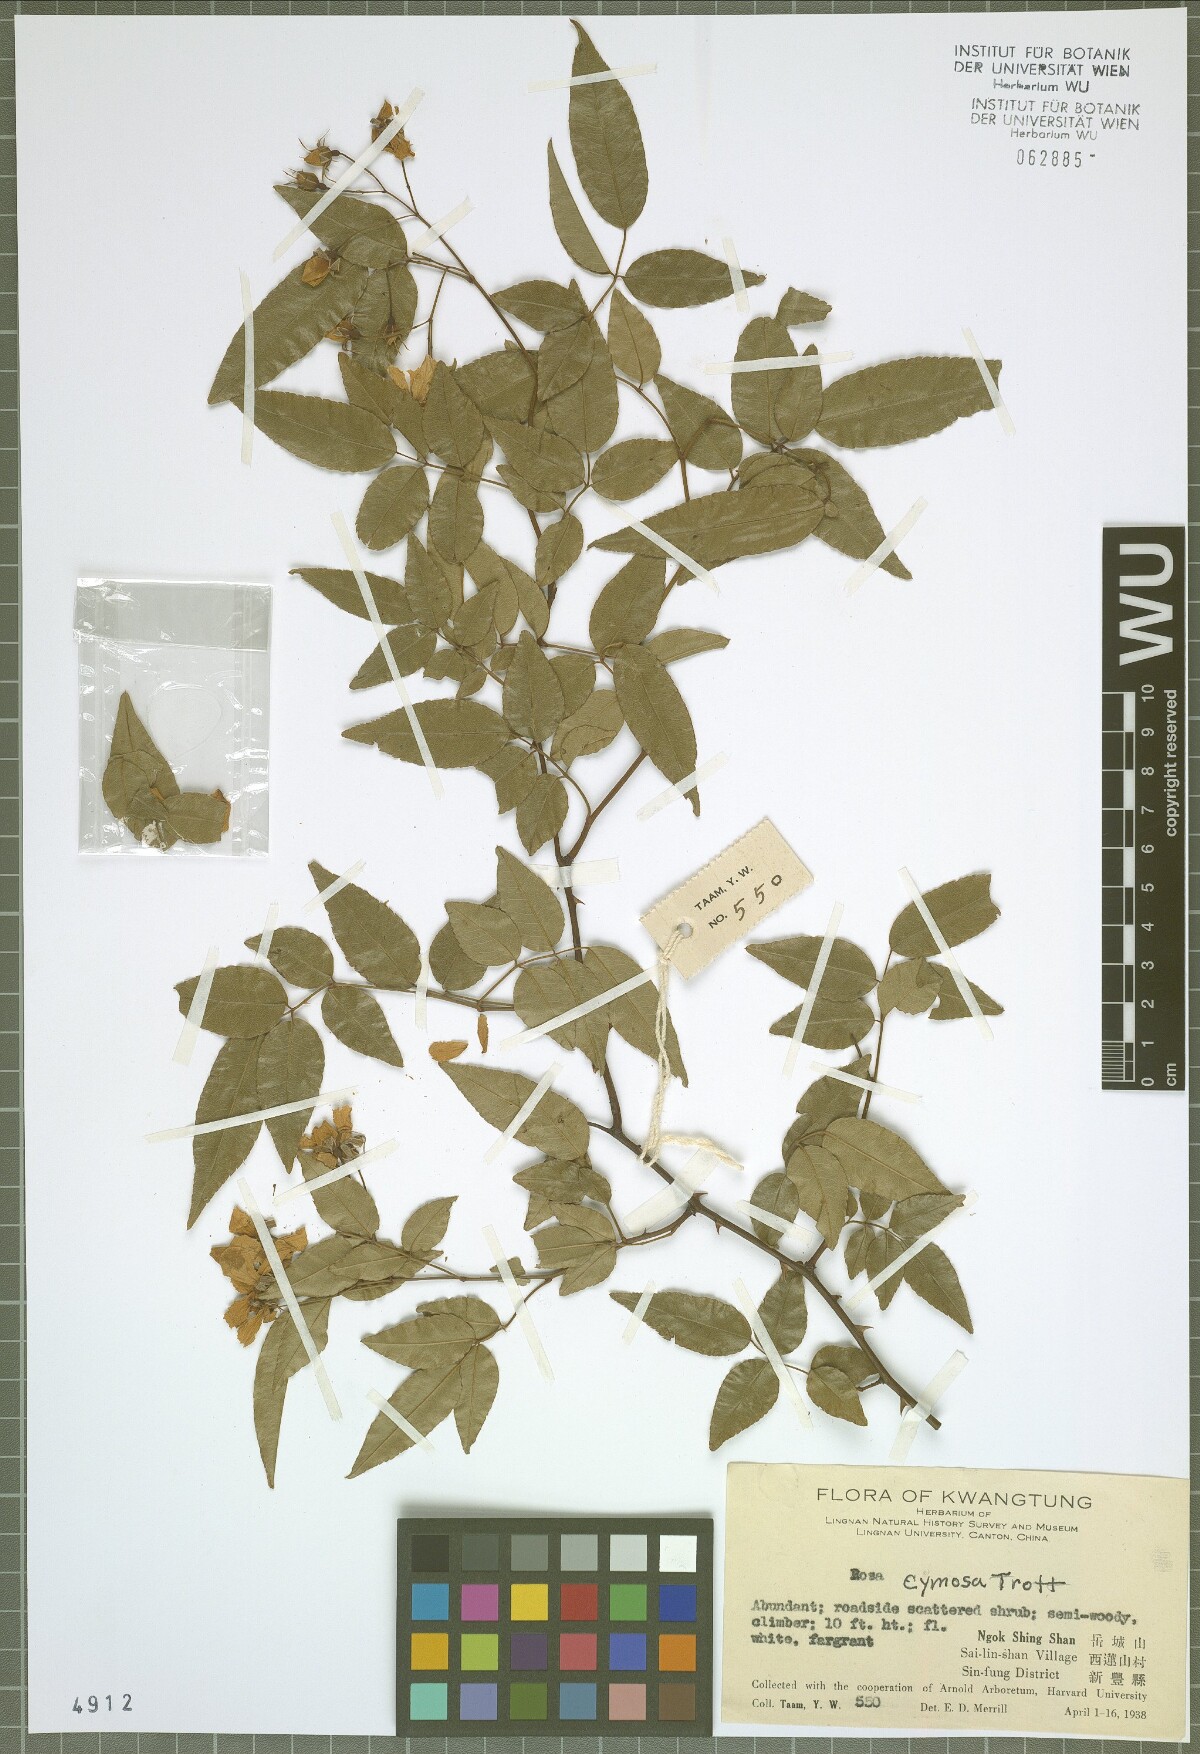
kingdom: Plantae
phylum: Tracheophyta
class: Magnoliopsida
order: Rosales
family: Rosaceae
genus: Rosa
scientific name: Rosa indica
